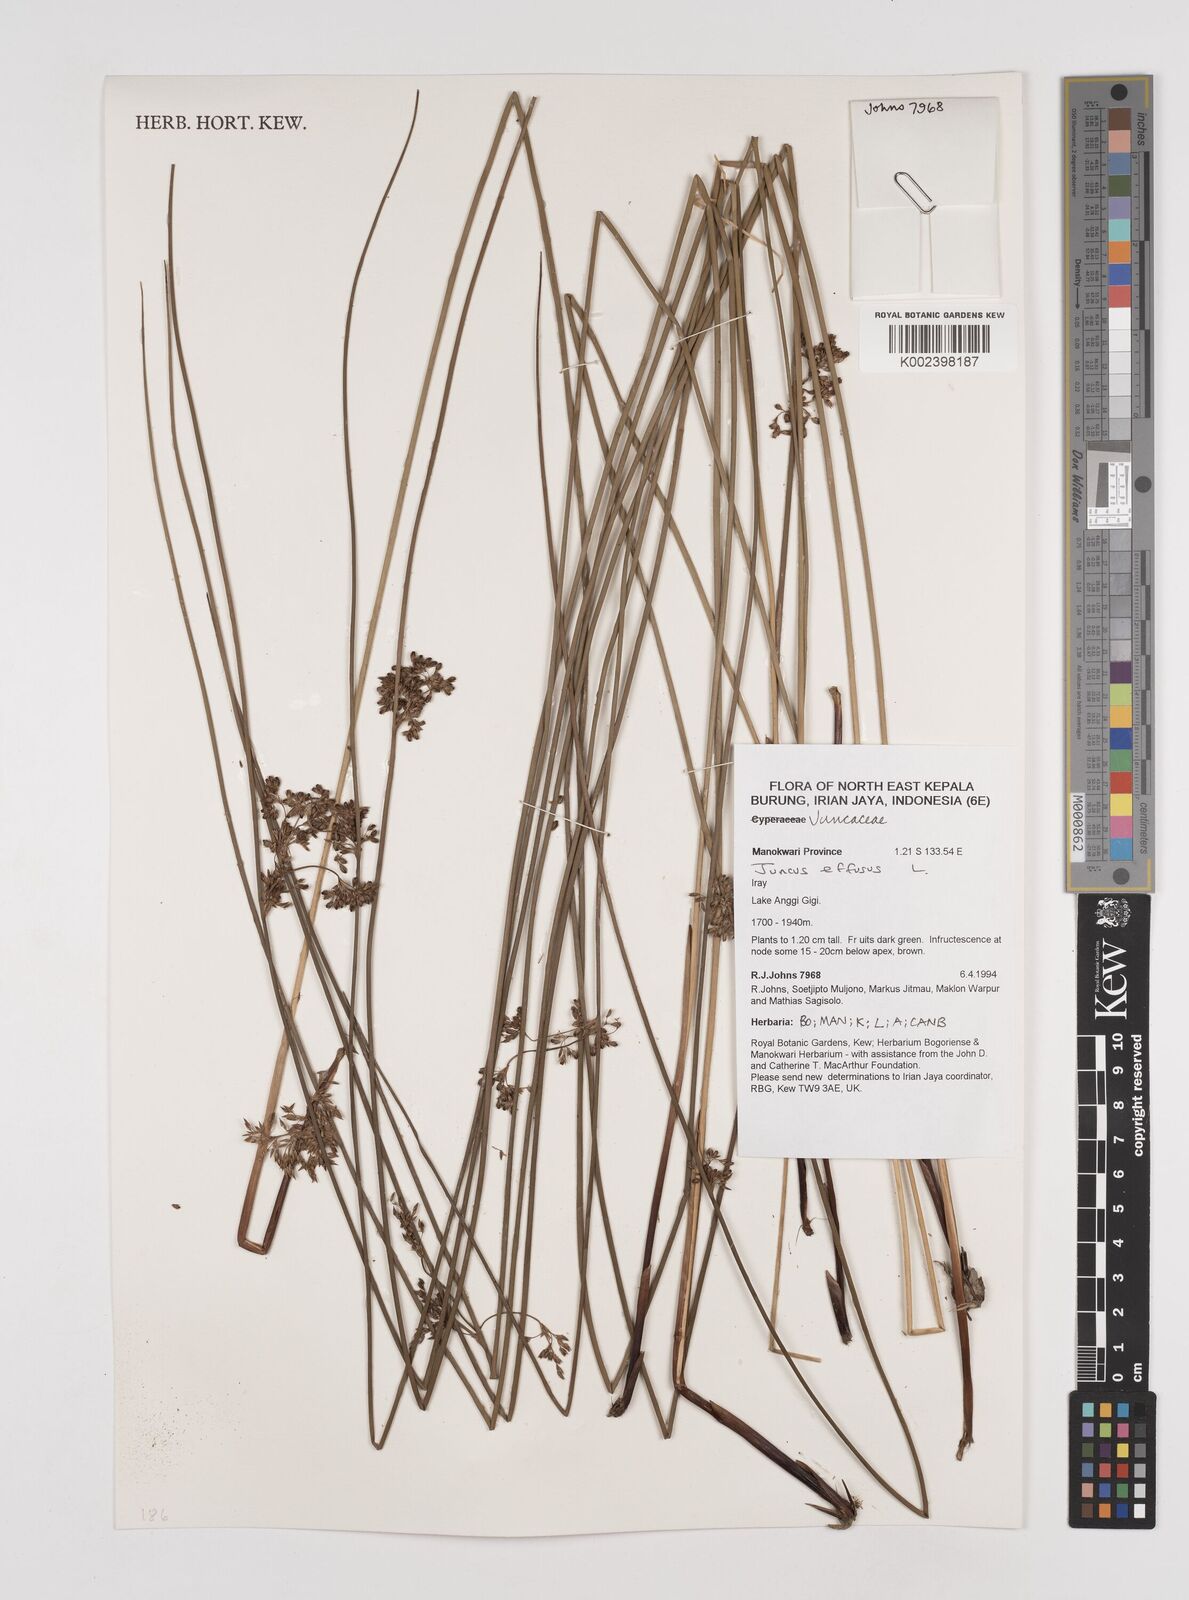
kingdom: Plantae
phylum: Tracheophyta
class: Liliopsida
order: Poales
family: Juncaceae
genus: Juncus
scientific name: Juncus decipiens
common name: Lamp rush
